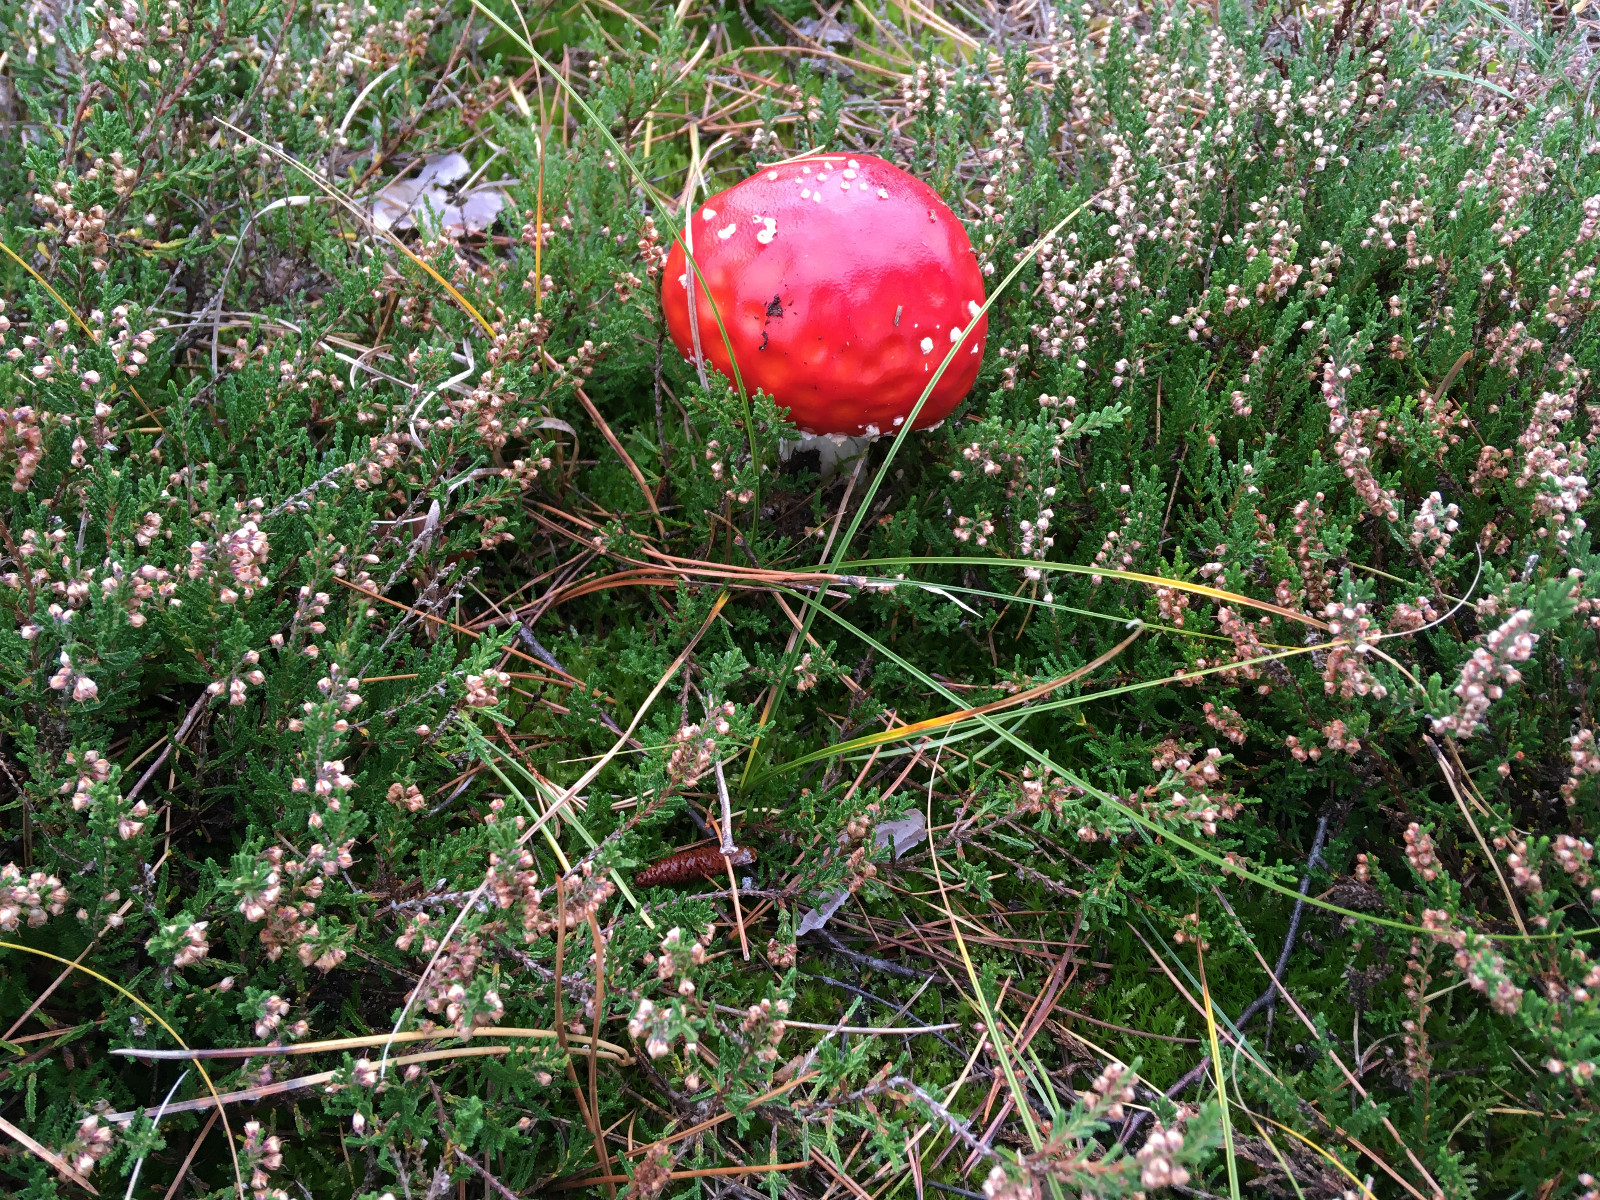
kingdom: Fungi
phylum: Basidiomycota
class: Agaricomycetes
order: Agaricales
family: Amanitaceae
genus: Amanita
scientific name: Amanita muscaria
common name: rød fluesvamp
